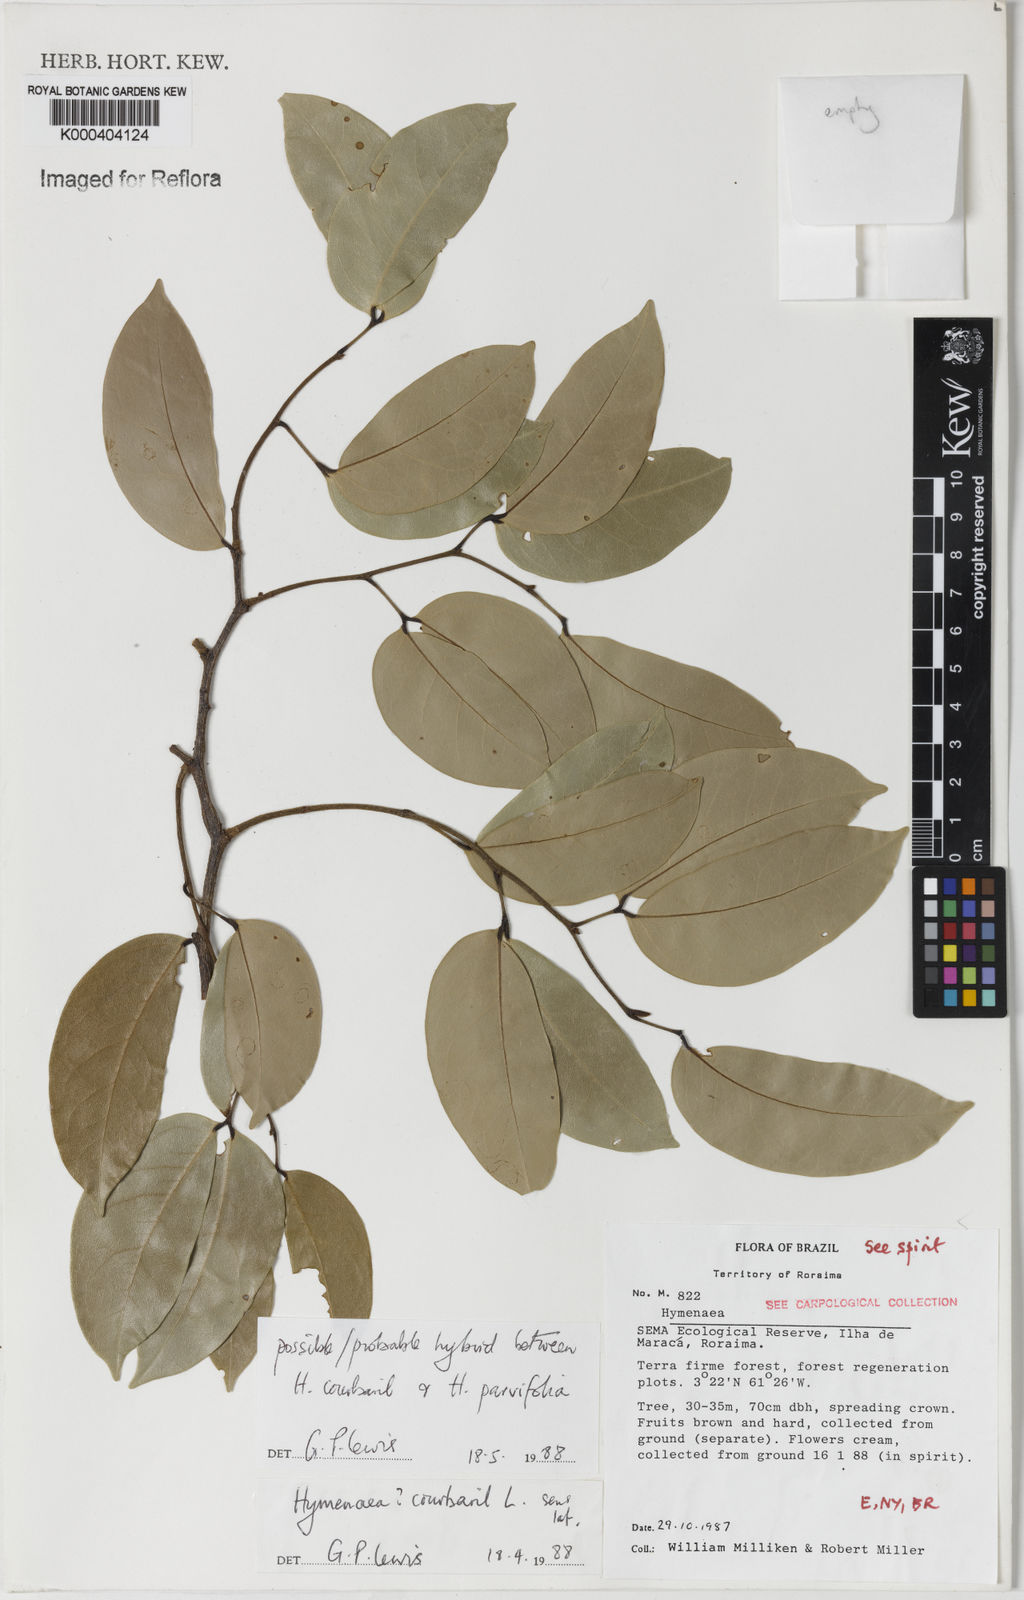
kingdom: Plantae
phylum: Tracheophyta
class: Magnoliopsida
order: Fabales
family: Fabaceae
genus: Hymenaea
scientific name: Hymenaea
